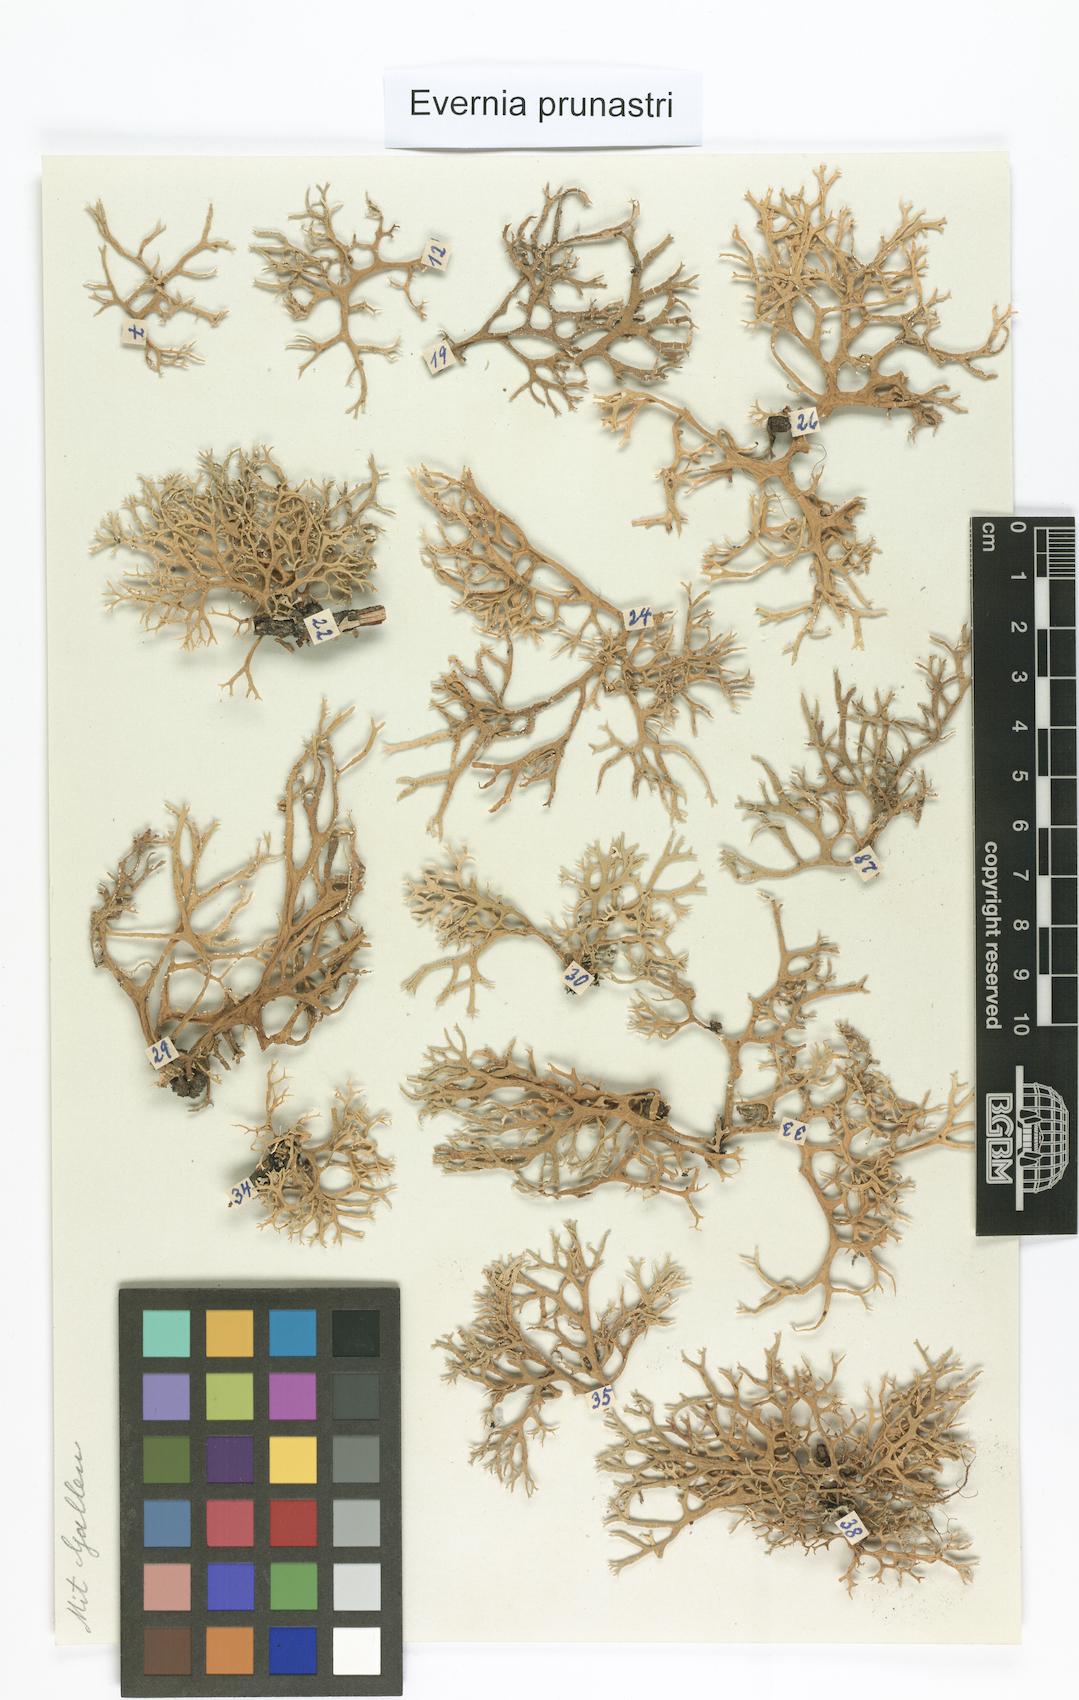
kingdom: Fungi
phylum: Ascomycota
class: Lecanoromycetes
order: Lecanorales
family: Parmeliaceae
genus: Evernia
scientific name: Evernia prunastri
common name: Oak moss
